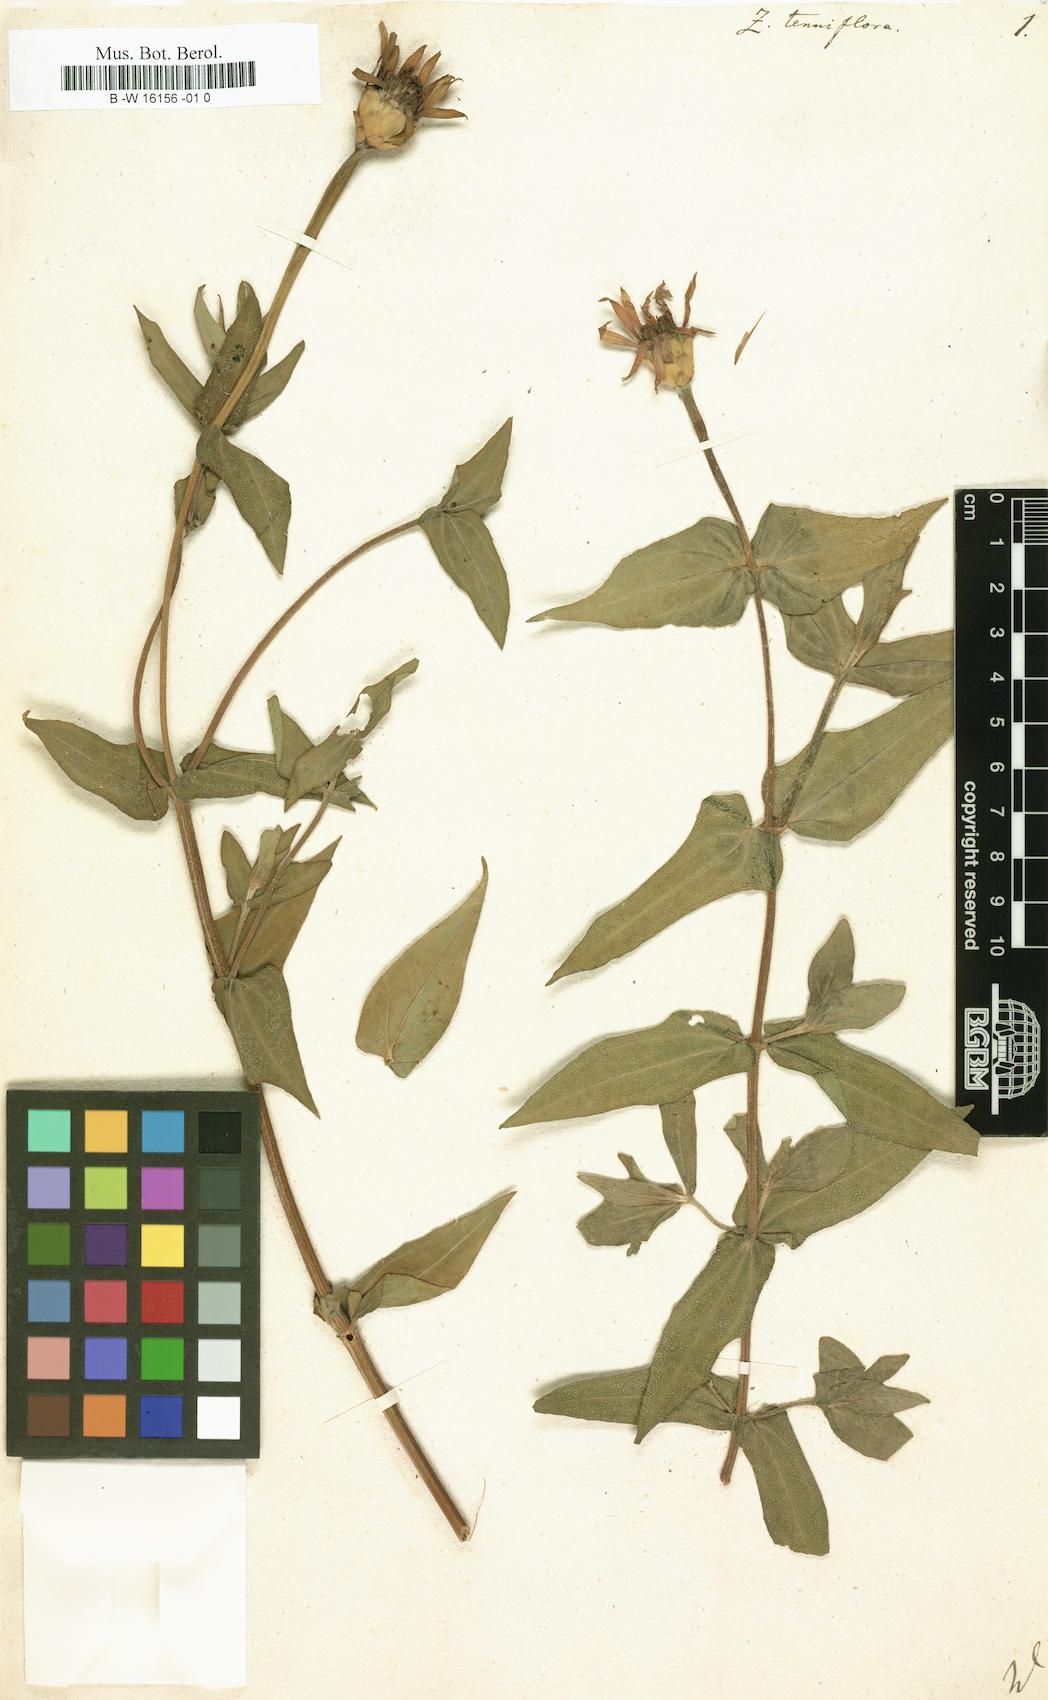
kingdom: Plantae
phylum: Tracheophyta
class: Magnoliopsida
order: Asterales
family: Asteraceae
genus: Zinnia
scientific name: Zinnia peruviana
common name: Peruvian zinnia
